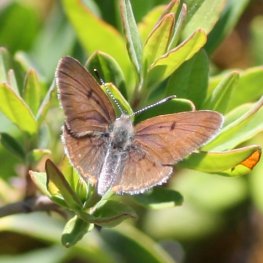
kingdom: Animalia
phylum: Arthropoda
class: Insecta
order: Lepidoptera
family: Sesiidae
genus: Sesia
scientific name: Sesia Lycaena epixanthe
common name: Bog Copper
